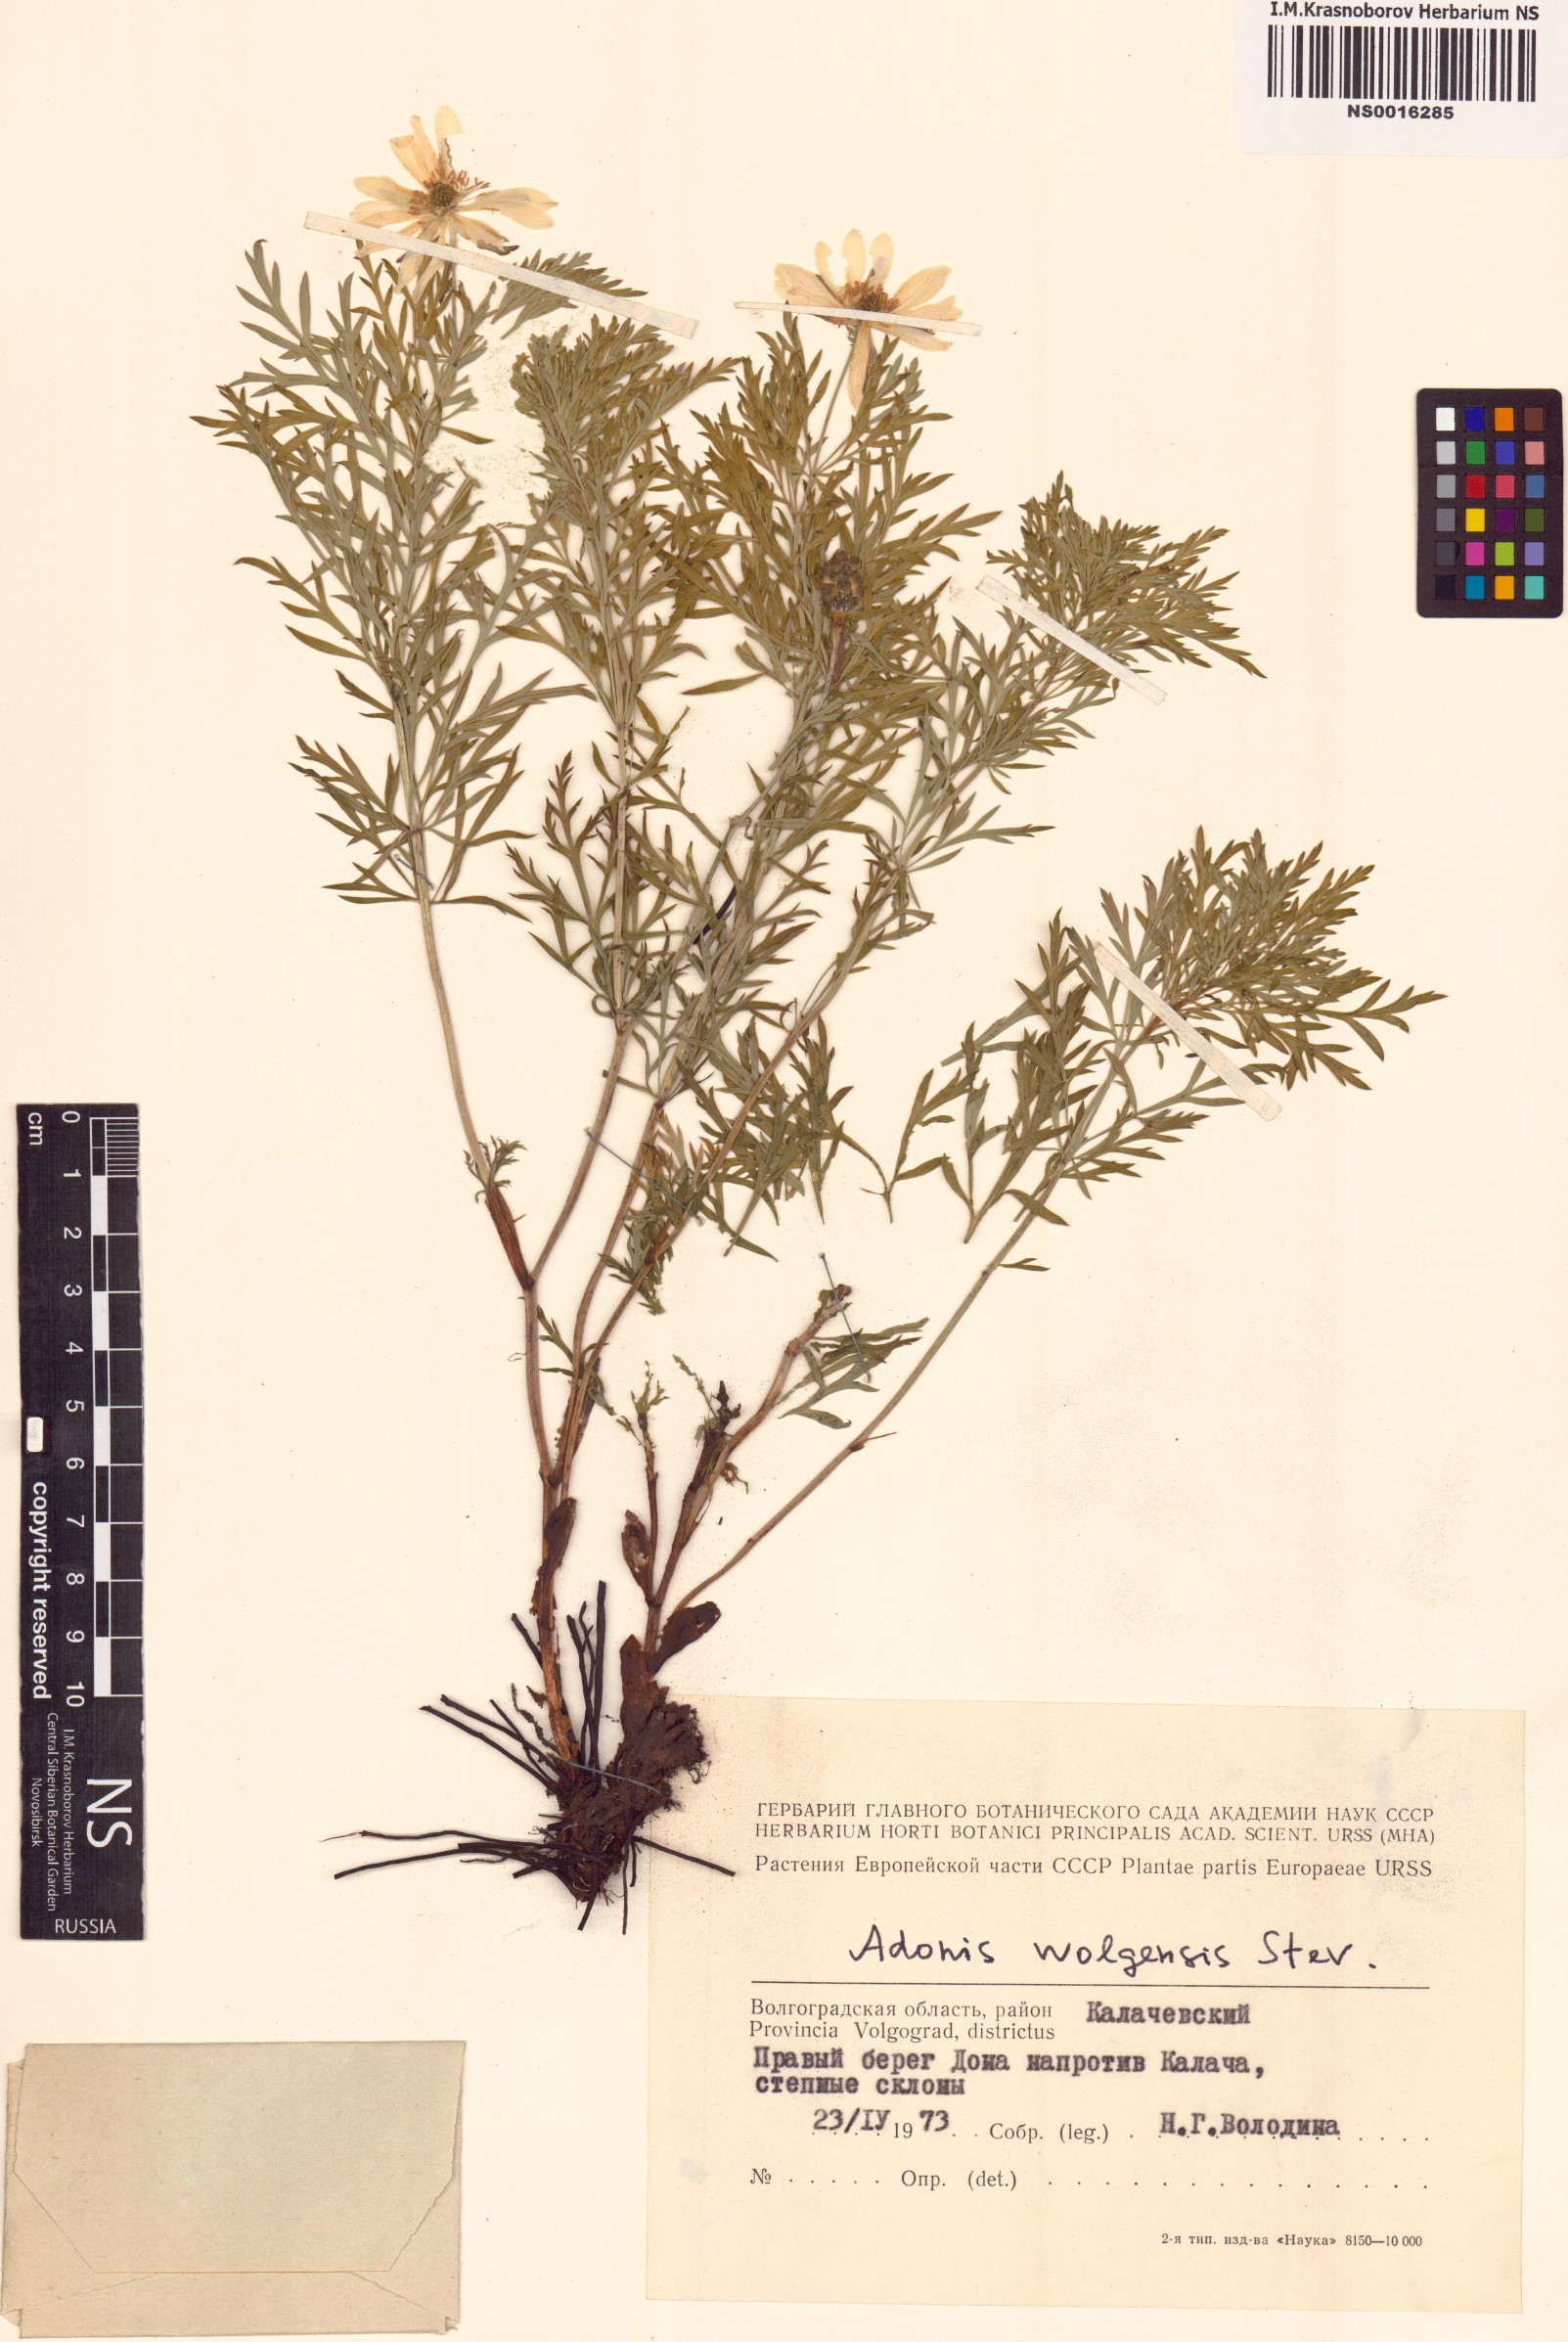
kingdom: Plantae
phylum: Tracheophyta
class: Magnoliopsida
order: Ranunculales
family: Ranunculaceae
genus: Adonis
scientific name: Adonis volgensis
